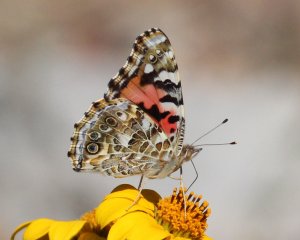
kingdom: Animalia
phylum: Arthropoda
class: Insecta
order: Lepidoptera
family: Nymphalidae
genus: Vanessa
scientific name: Vanessa cardui
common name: Painted Lady
